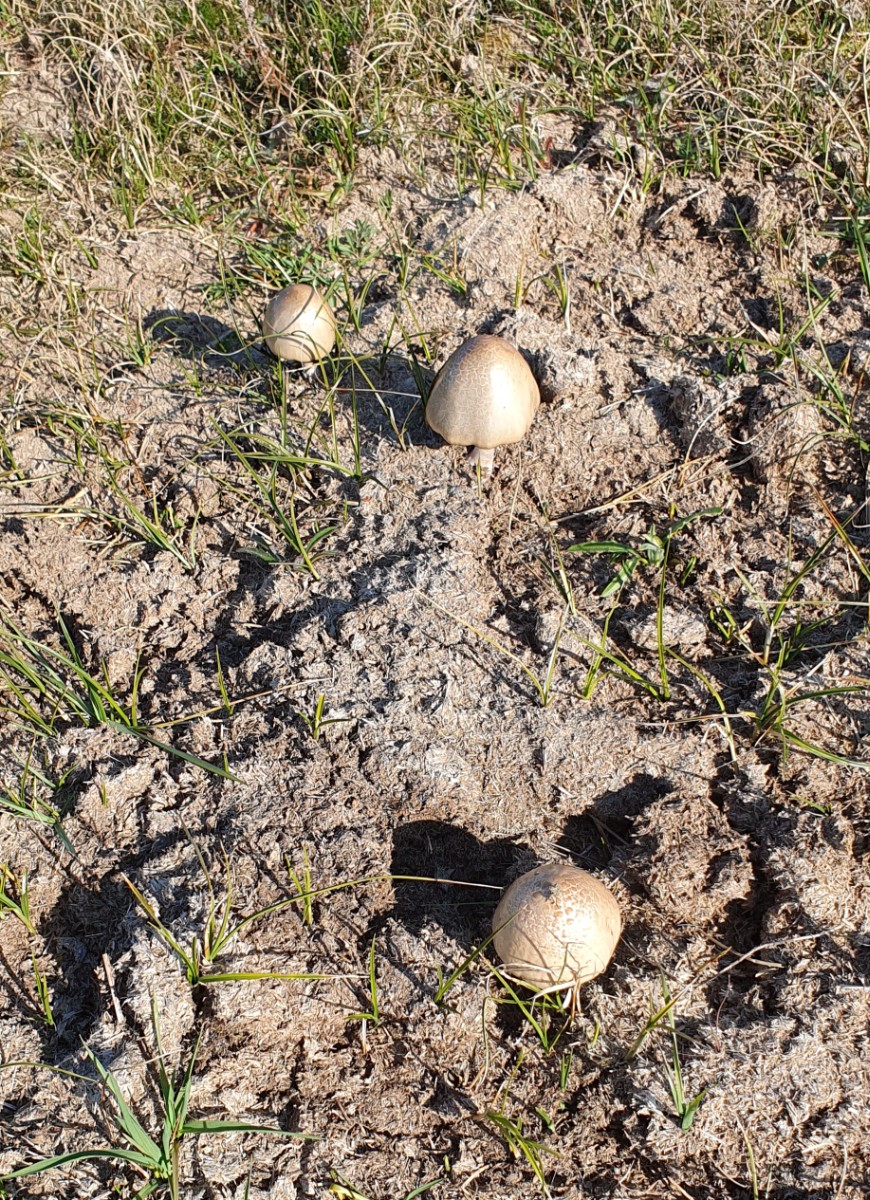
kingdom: Fungi
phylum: Basidiomycota
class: Agaricomycetes
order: Agaricales
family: Bolbitiaceae
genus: Panaeolus
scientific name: Panaeolus semiovatus
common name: ring-glanshat
